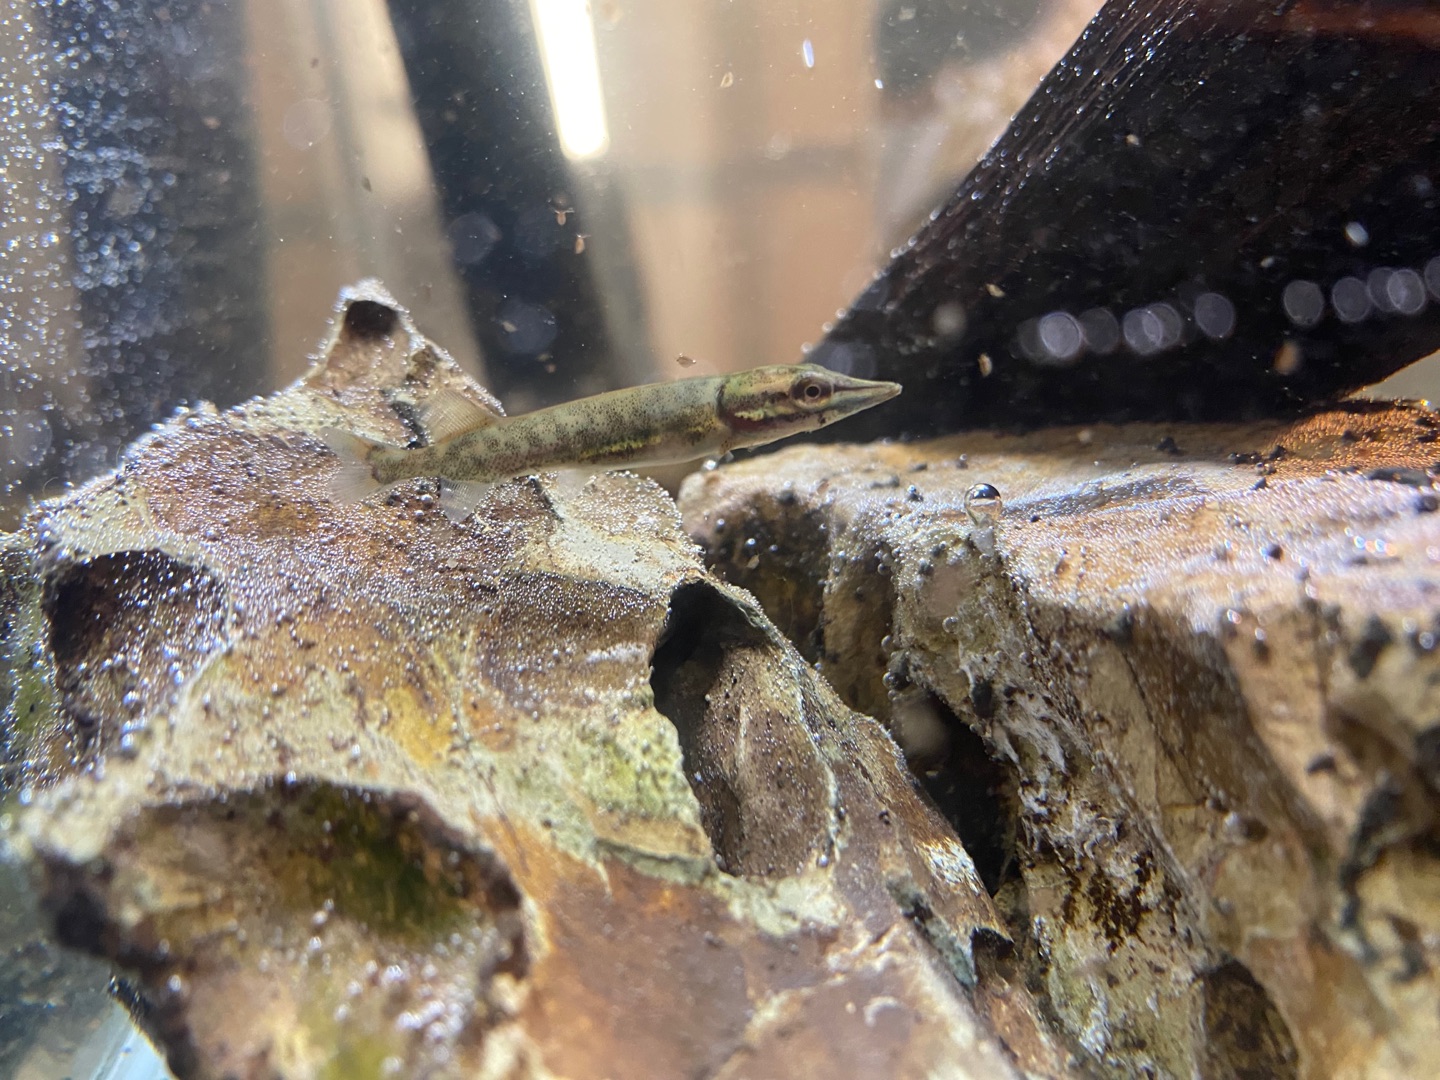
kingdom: Animalia
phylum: Chordata
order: Esociformes
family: Esocidae
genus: Esox
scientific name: Esox lucius
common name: Gedde
